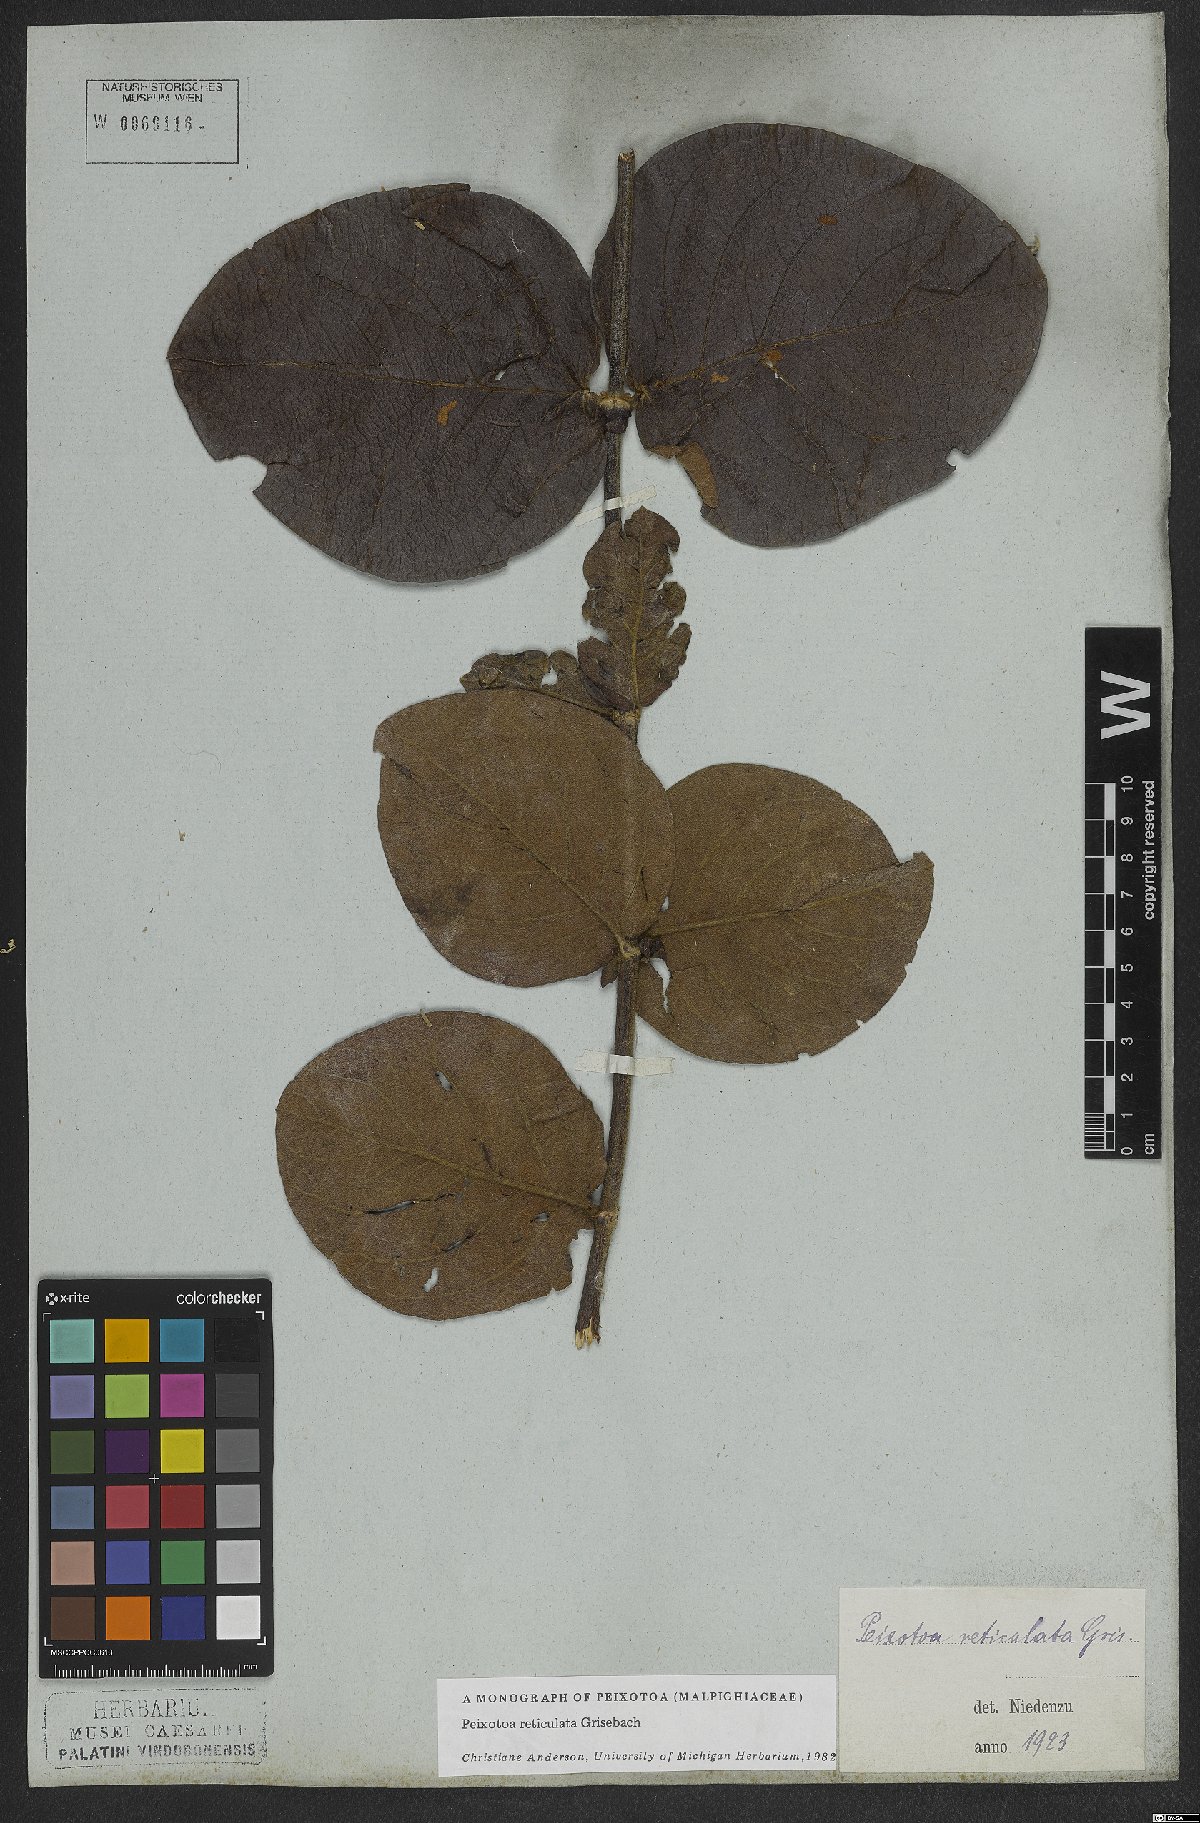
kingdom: Plantae
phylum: Tracheophyta
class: Magnoliopsida
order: Malpighiales
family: Malpighiaceae
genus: Peixotoa
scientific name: Peixotoa reticulata
